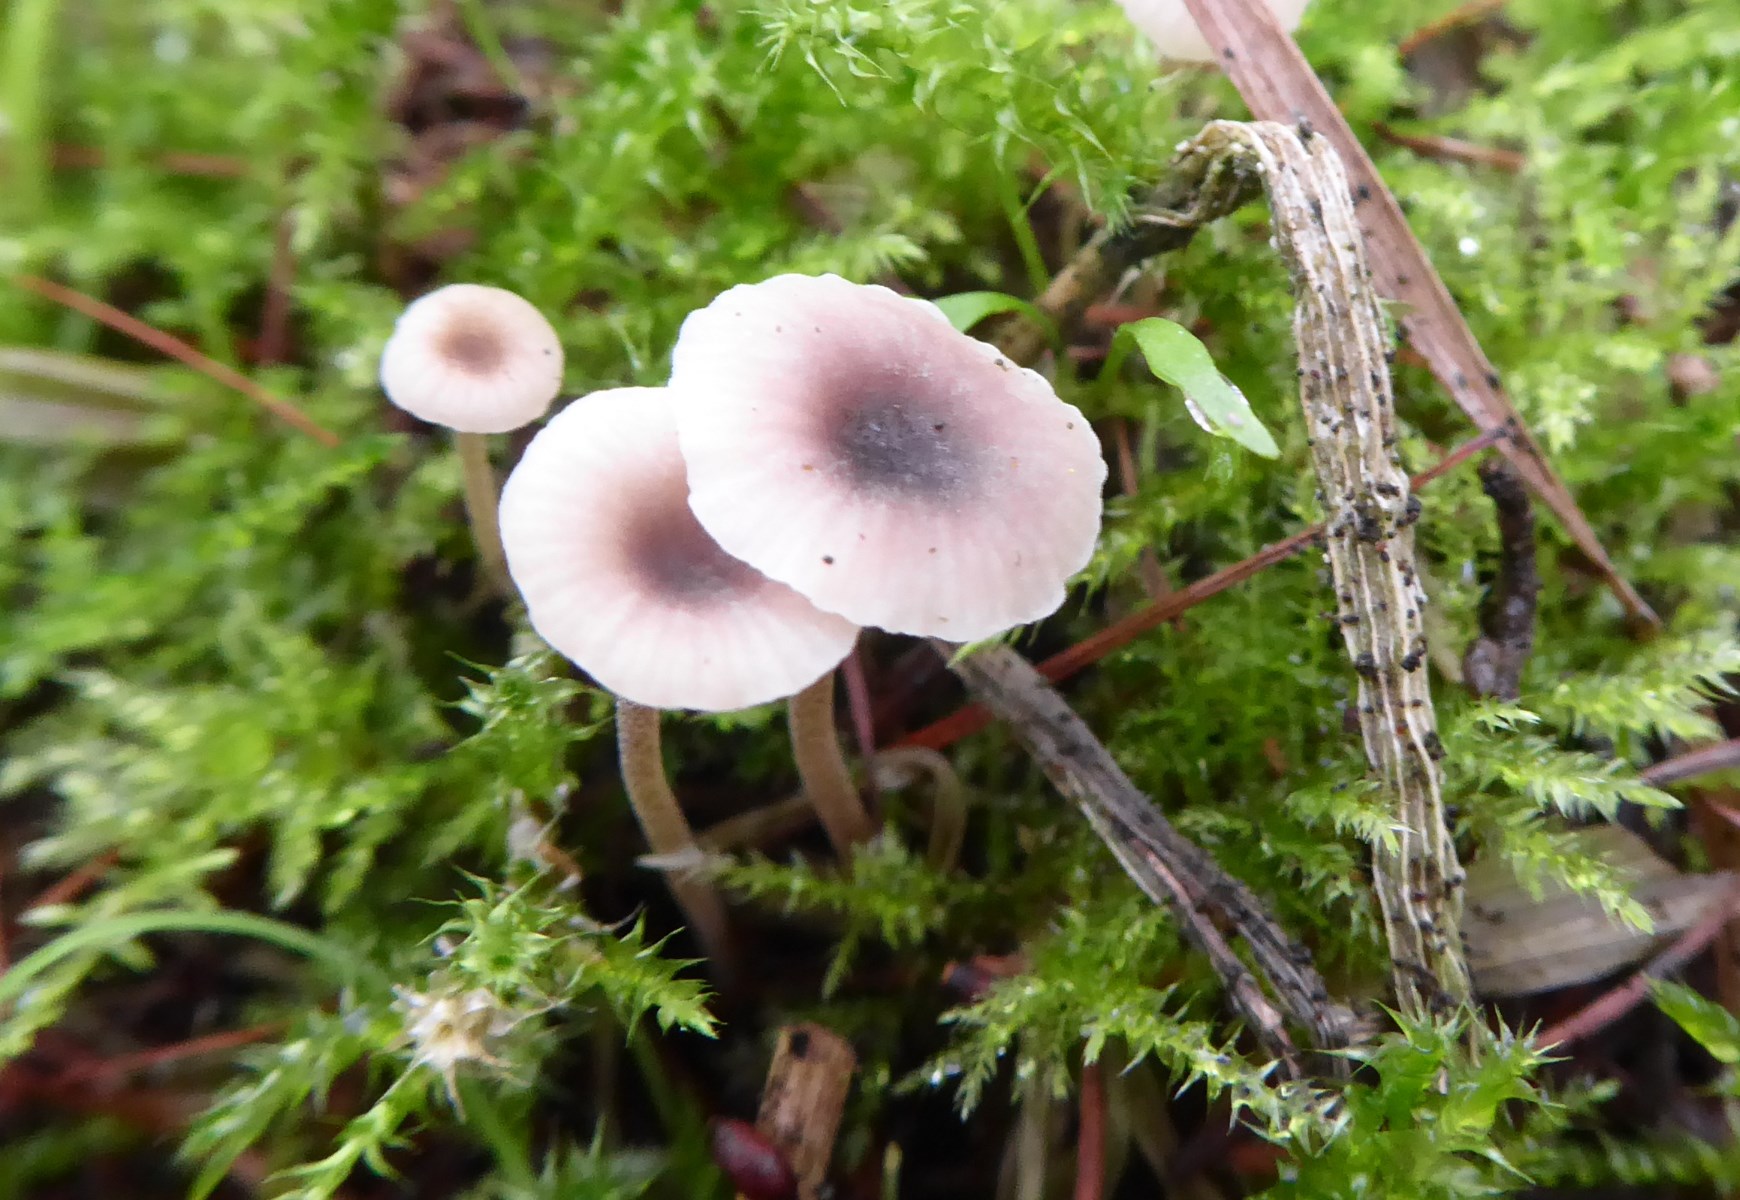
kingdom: Fungi
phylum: Basidiomycota
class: Agaricomycetes
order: Hymenochaetales
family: Rickenellaceae
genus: Rickenella
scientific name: Rickenella swartzii
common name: finstokket mosnavlehat
